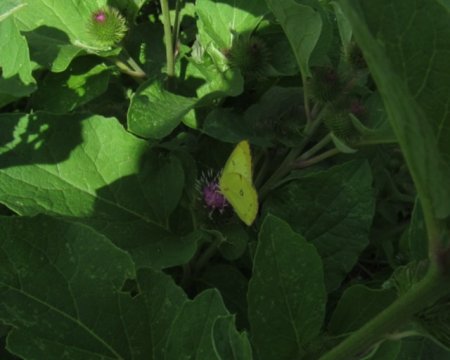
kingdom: Animalia
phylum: Arthropoda
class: Insecta
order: Lepidoptera
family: Pieridae
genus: Colias
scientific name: Colias philodice
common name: Clouded Sulphur
